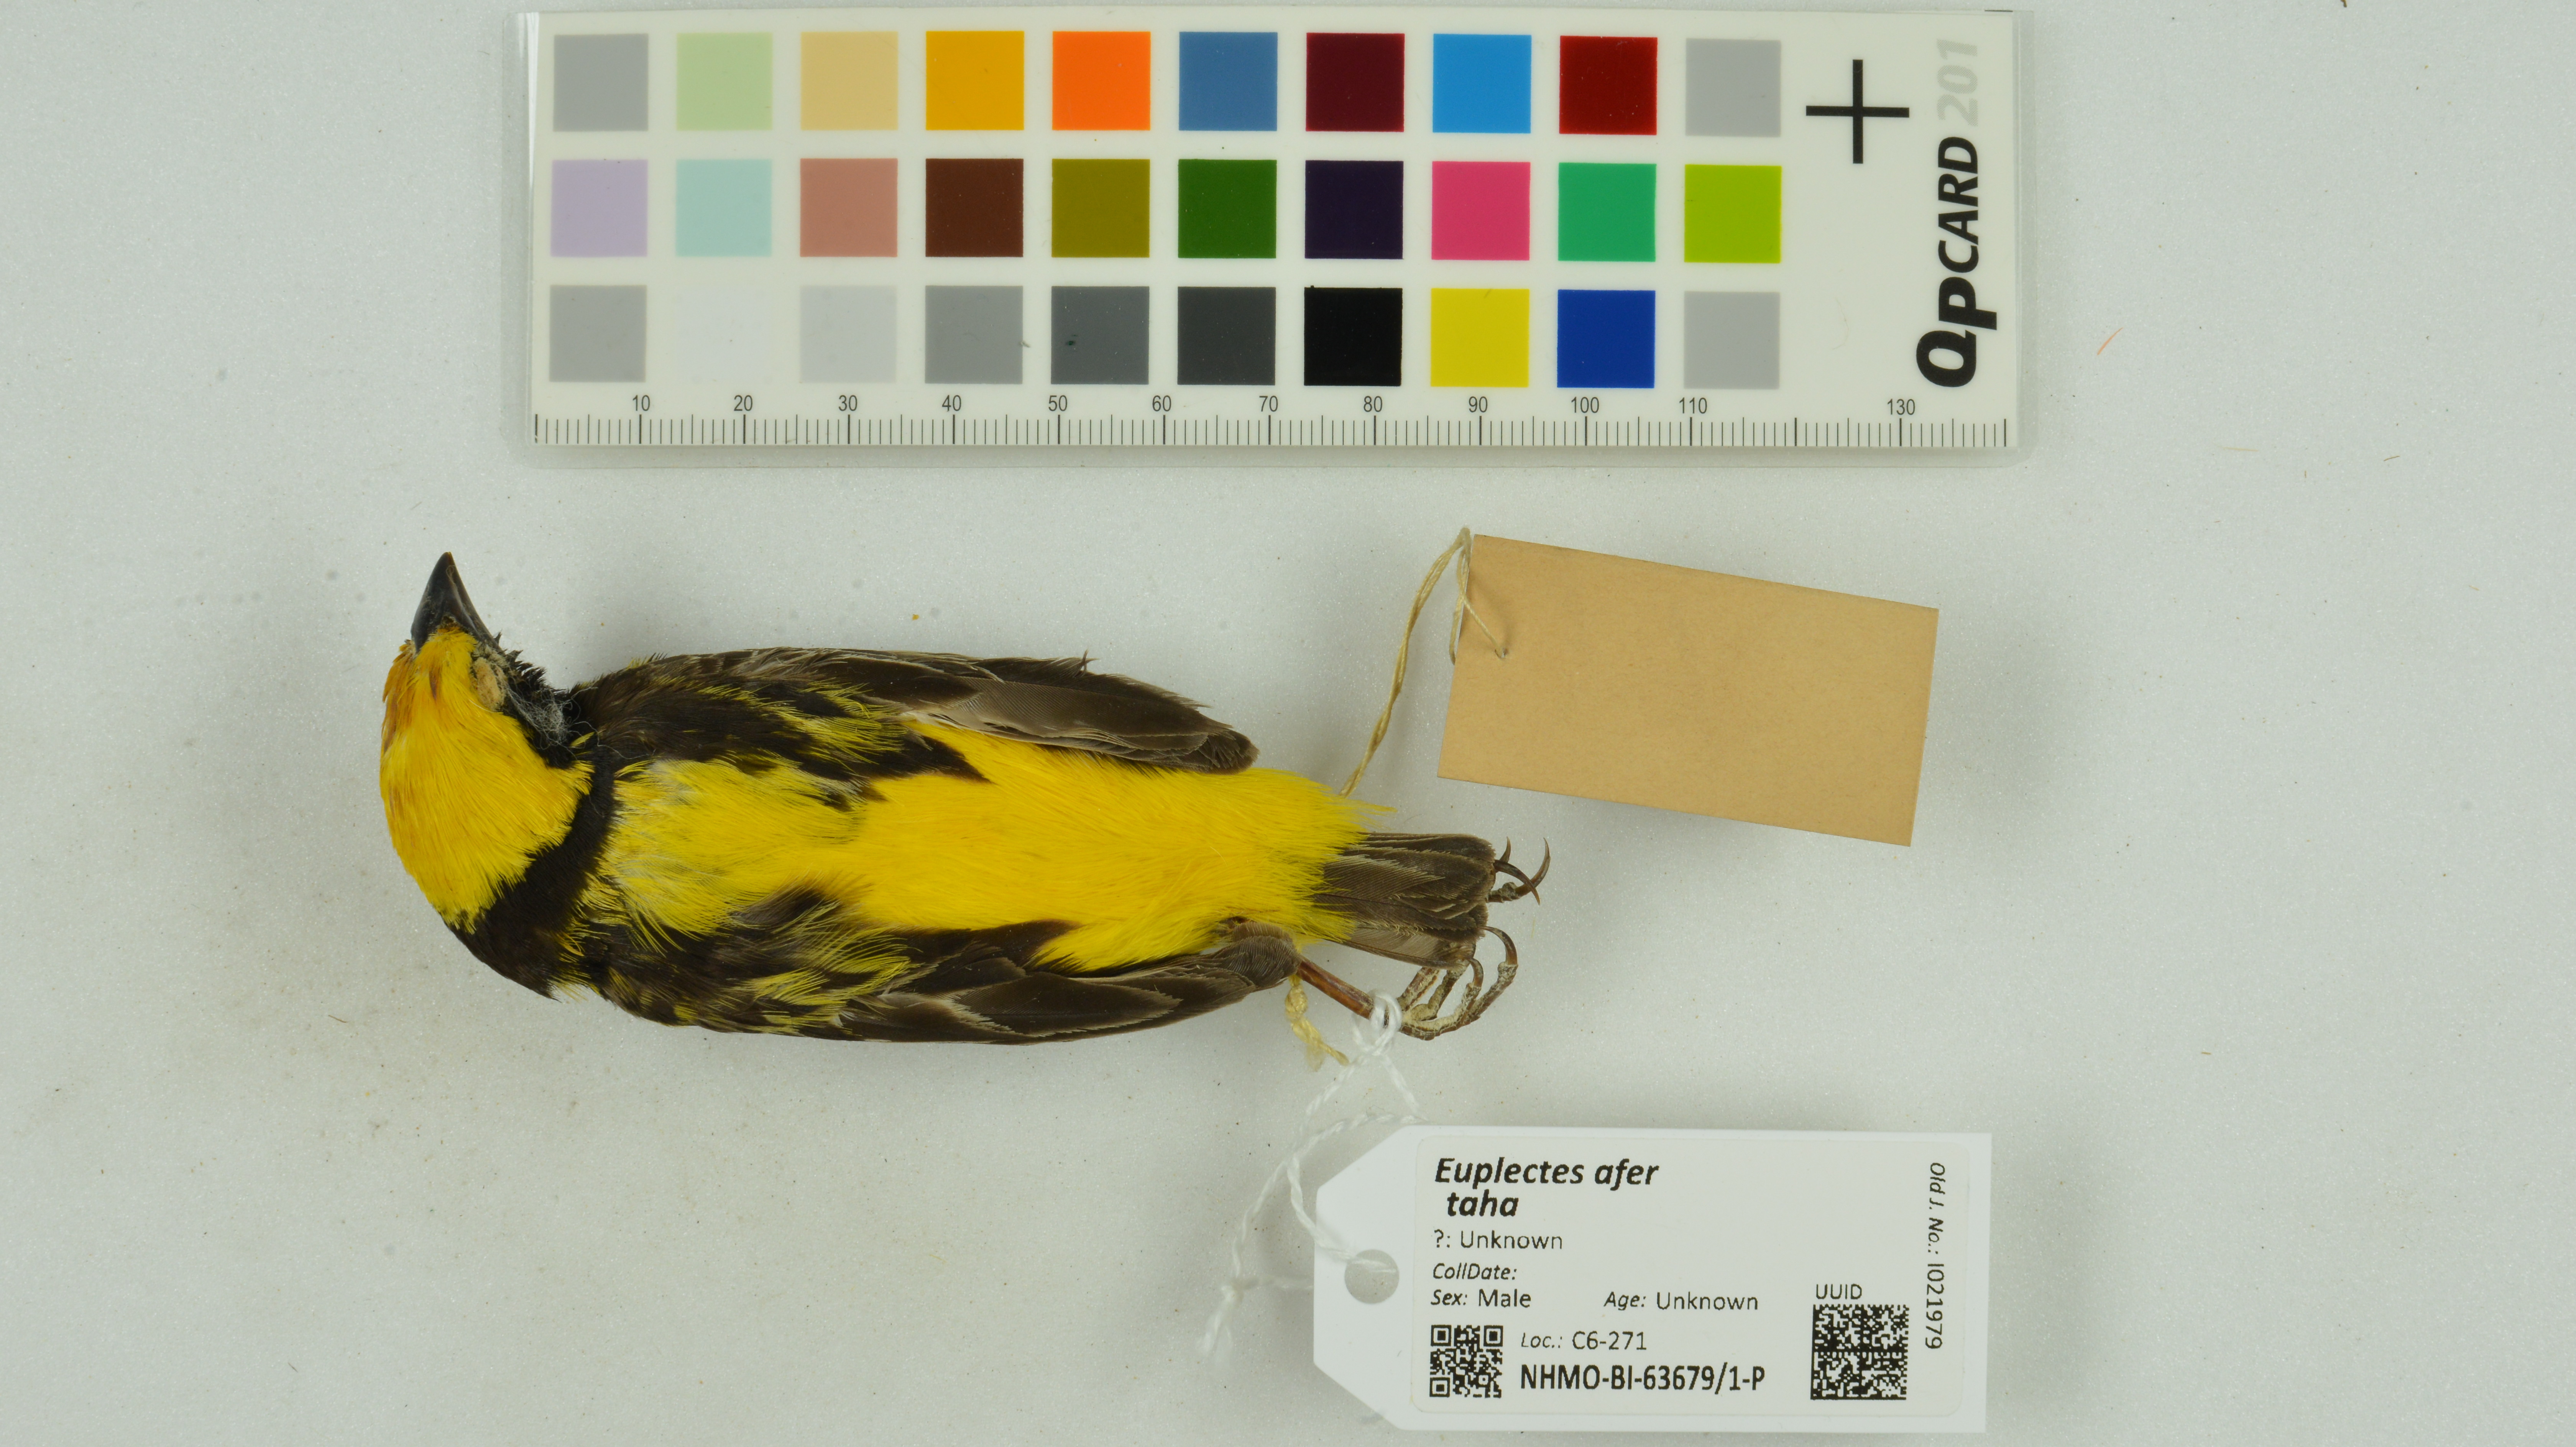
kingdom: Animalia
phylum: Chordata
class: Aves
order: Passeriformes
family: Ploceidae
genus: Euplectes
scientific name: Euplectes afer
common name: Yellow-crowned bishop
